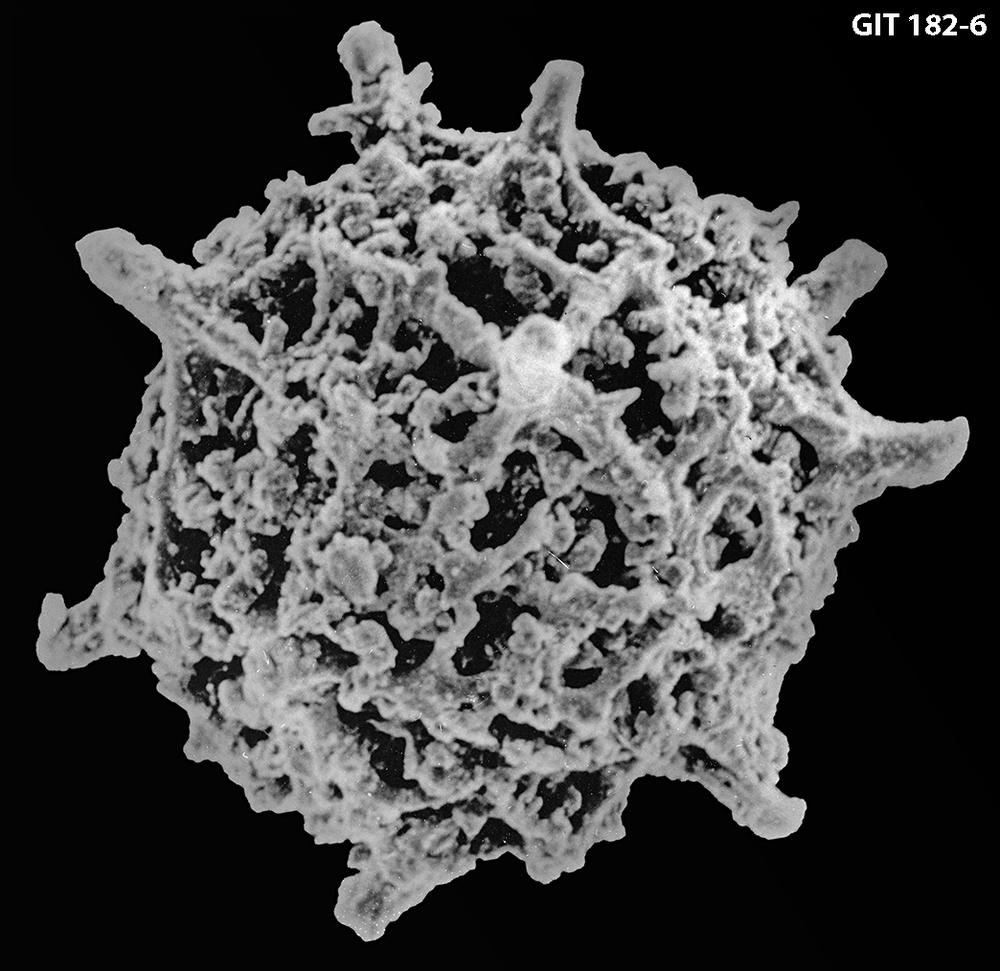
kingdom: Animalia
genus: Polyentactinia
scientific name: Polyentactinia
